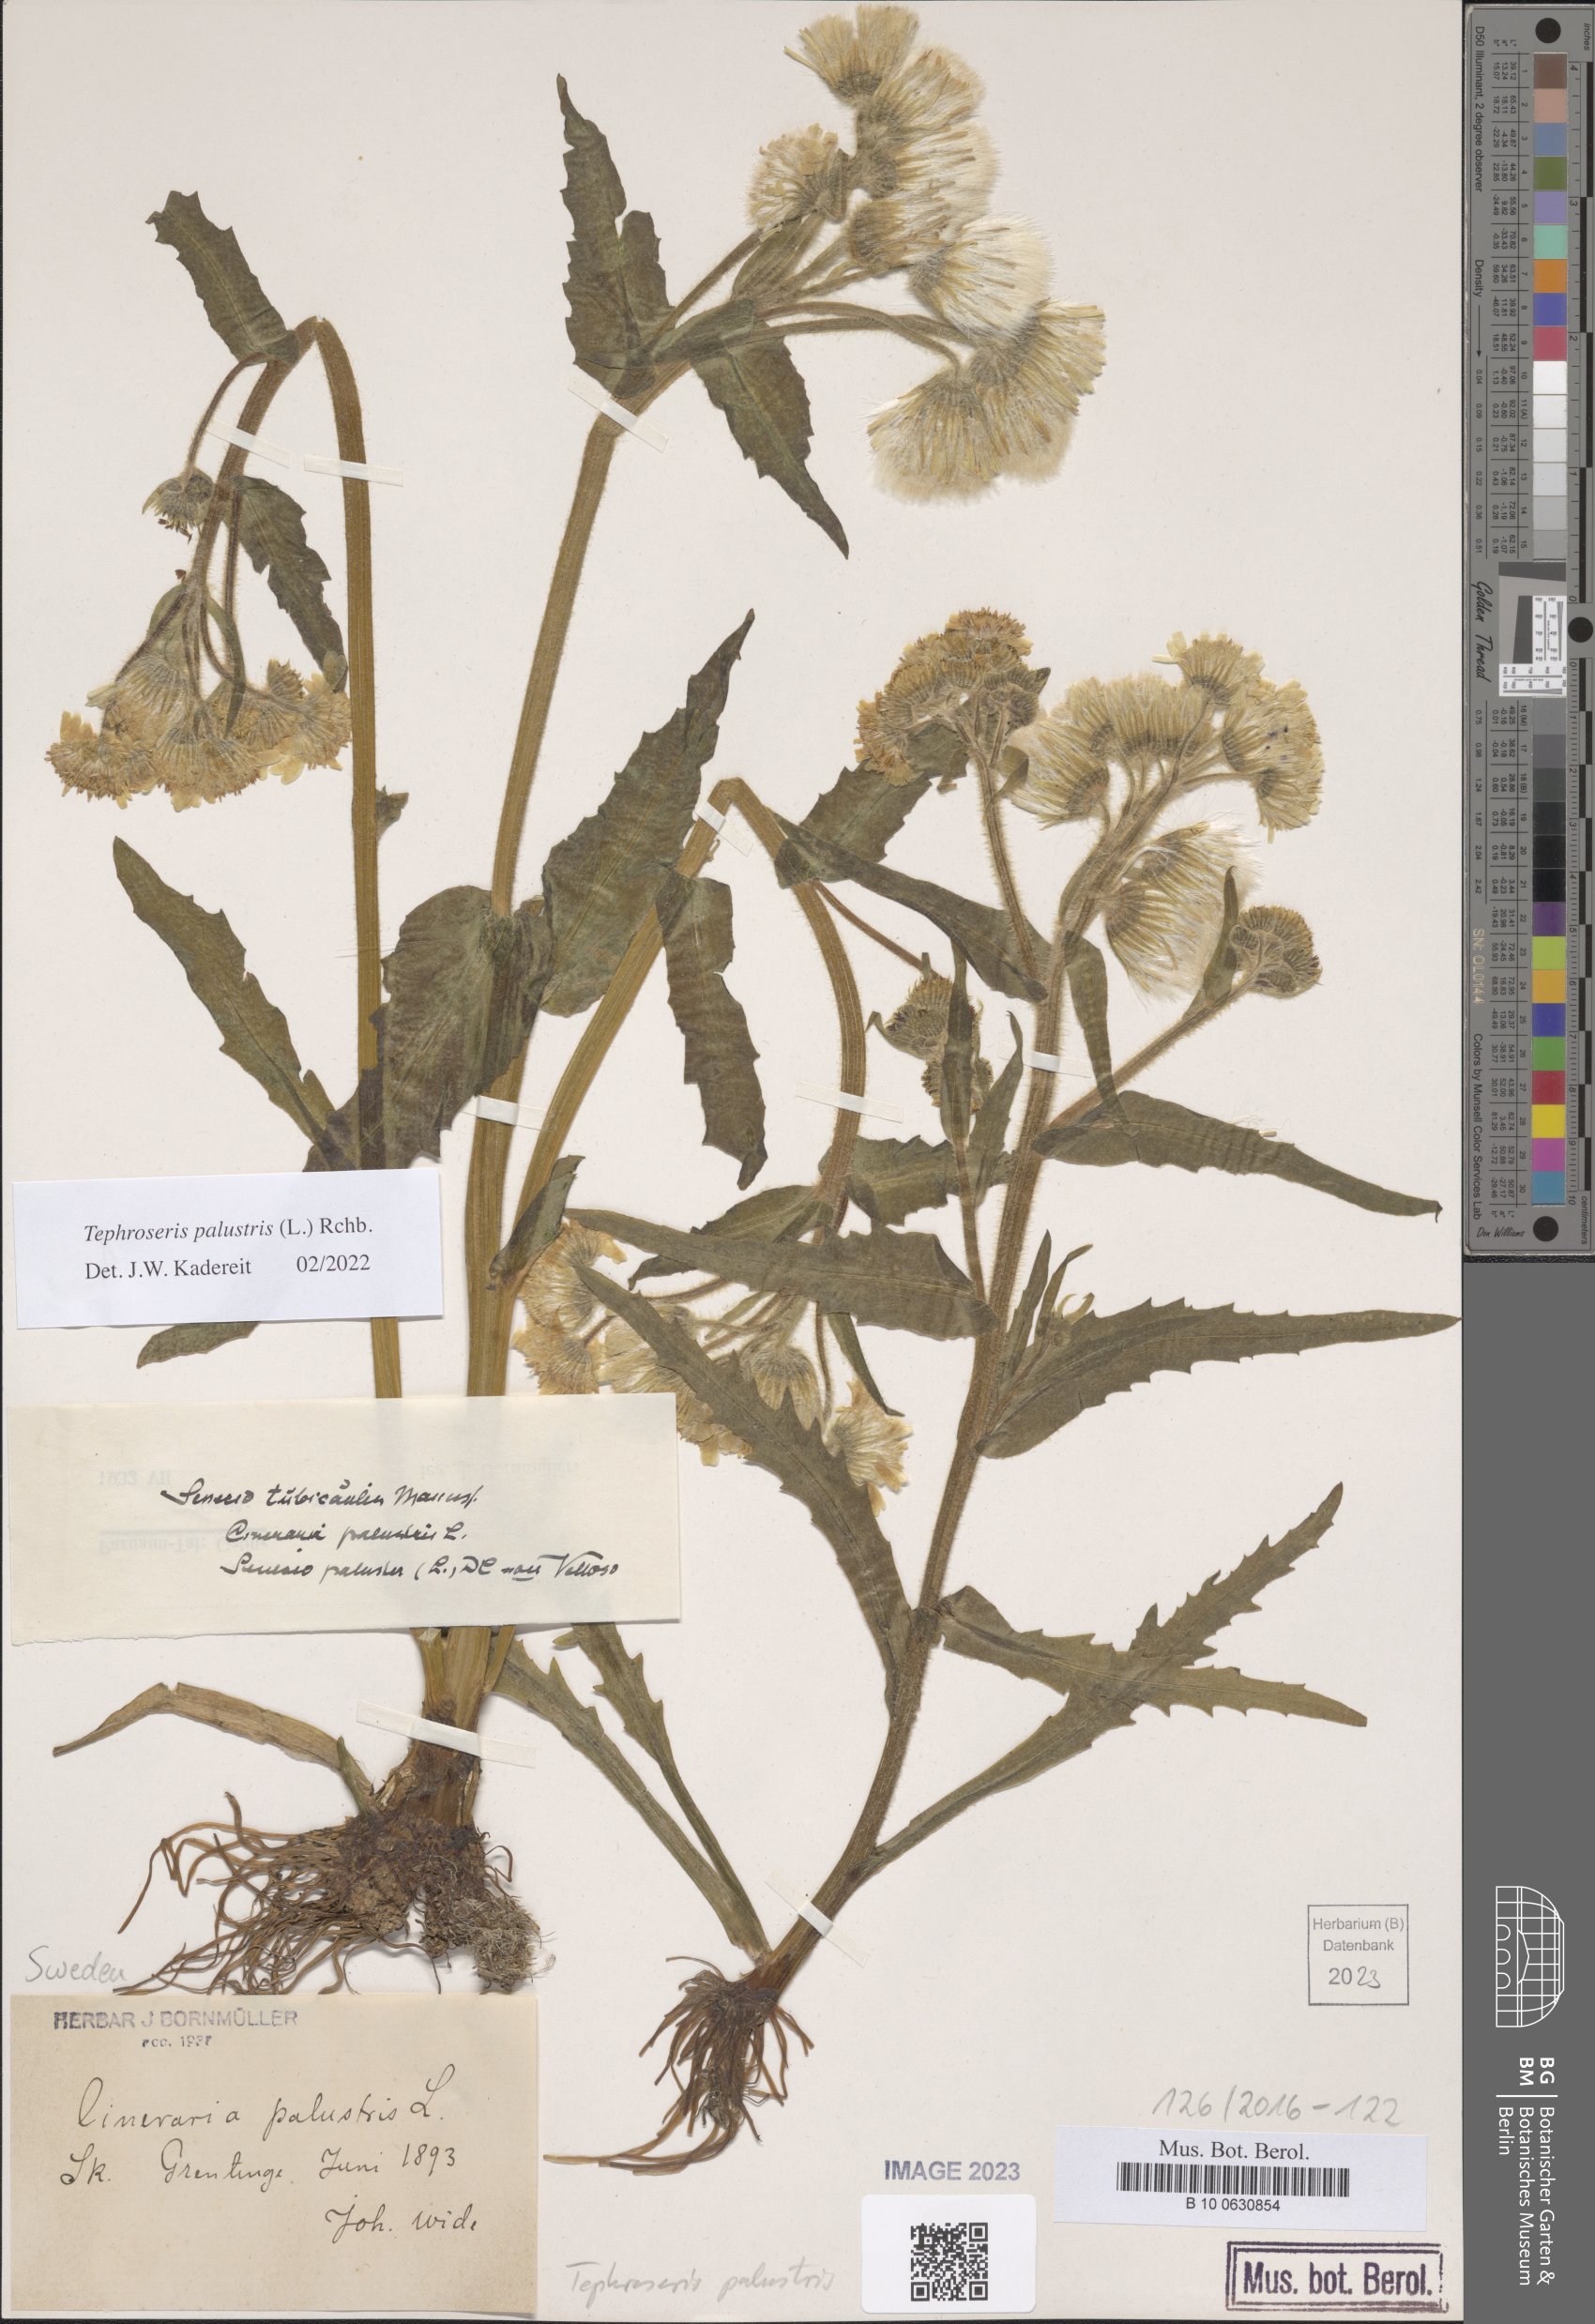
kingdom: Plantae
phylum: Tracheophyta
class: Magnoliopsida
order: Asterales
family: Asteraceae
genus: Tephroseris
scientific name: Tephroseris palustris
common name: Marsh fleawort
